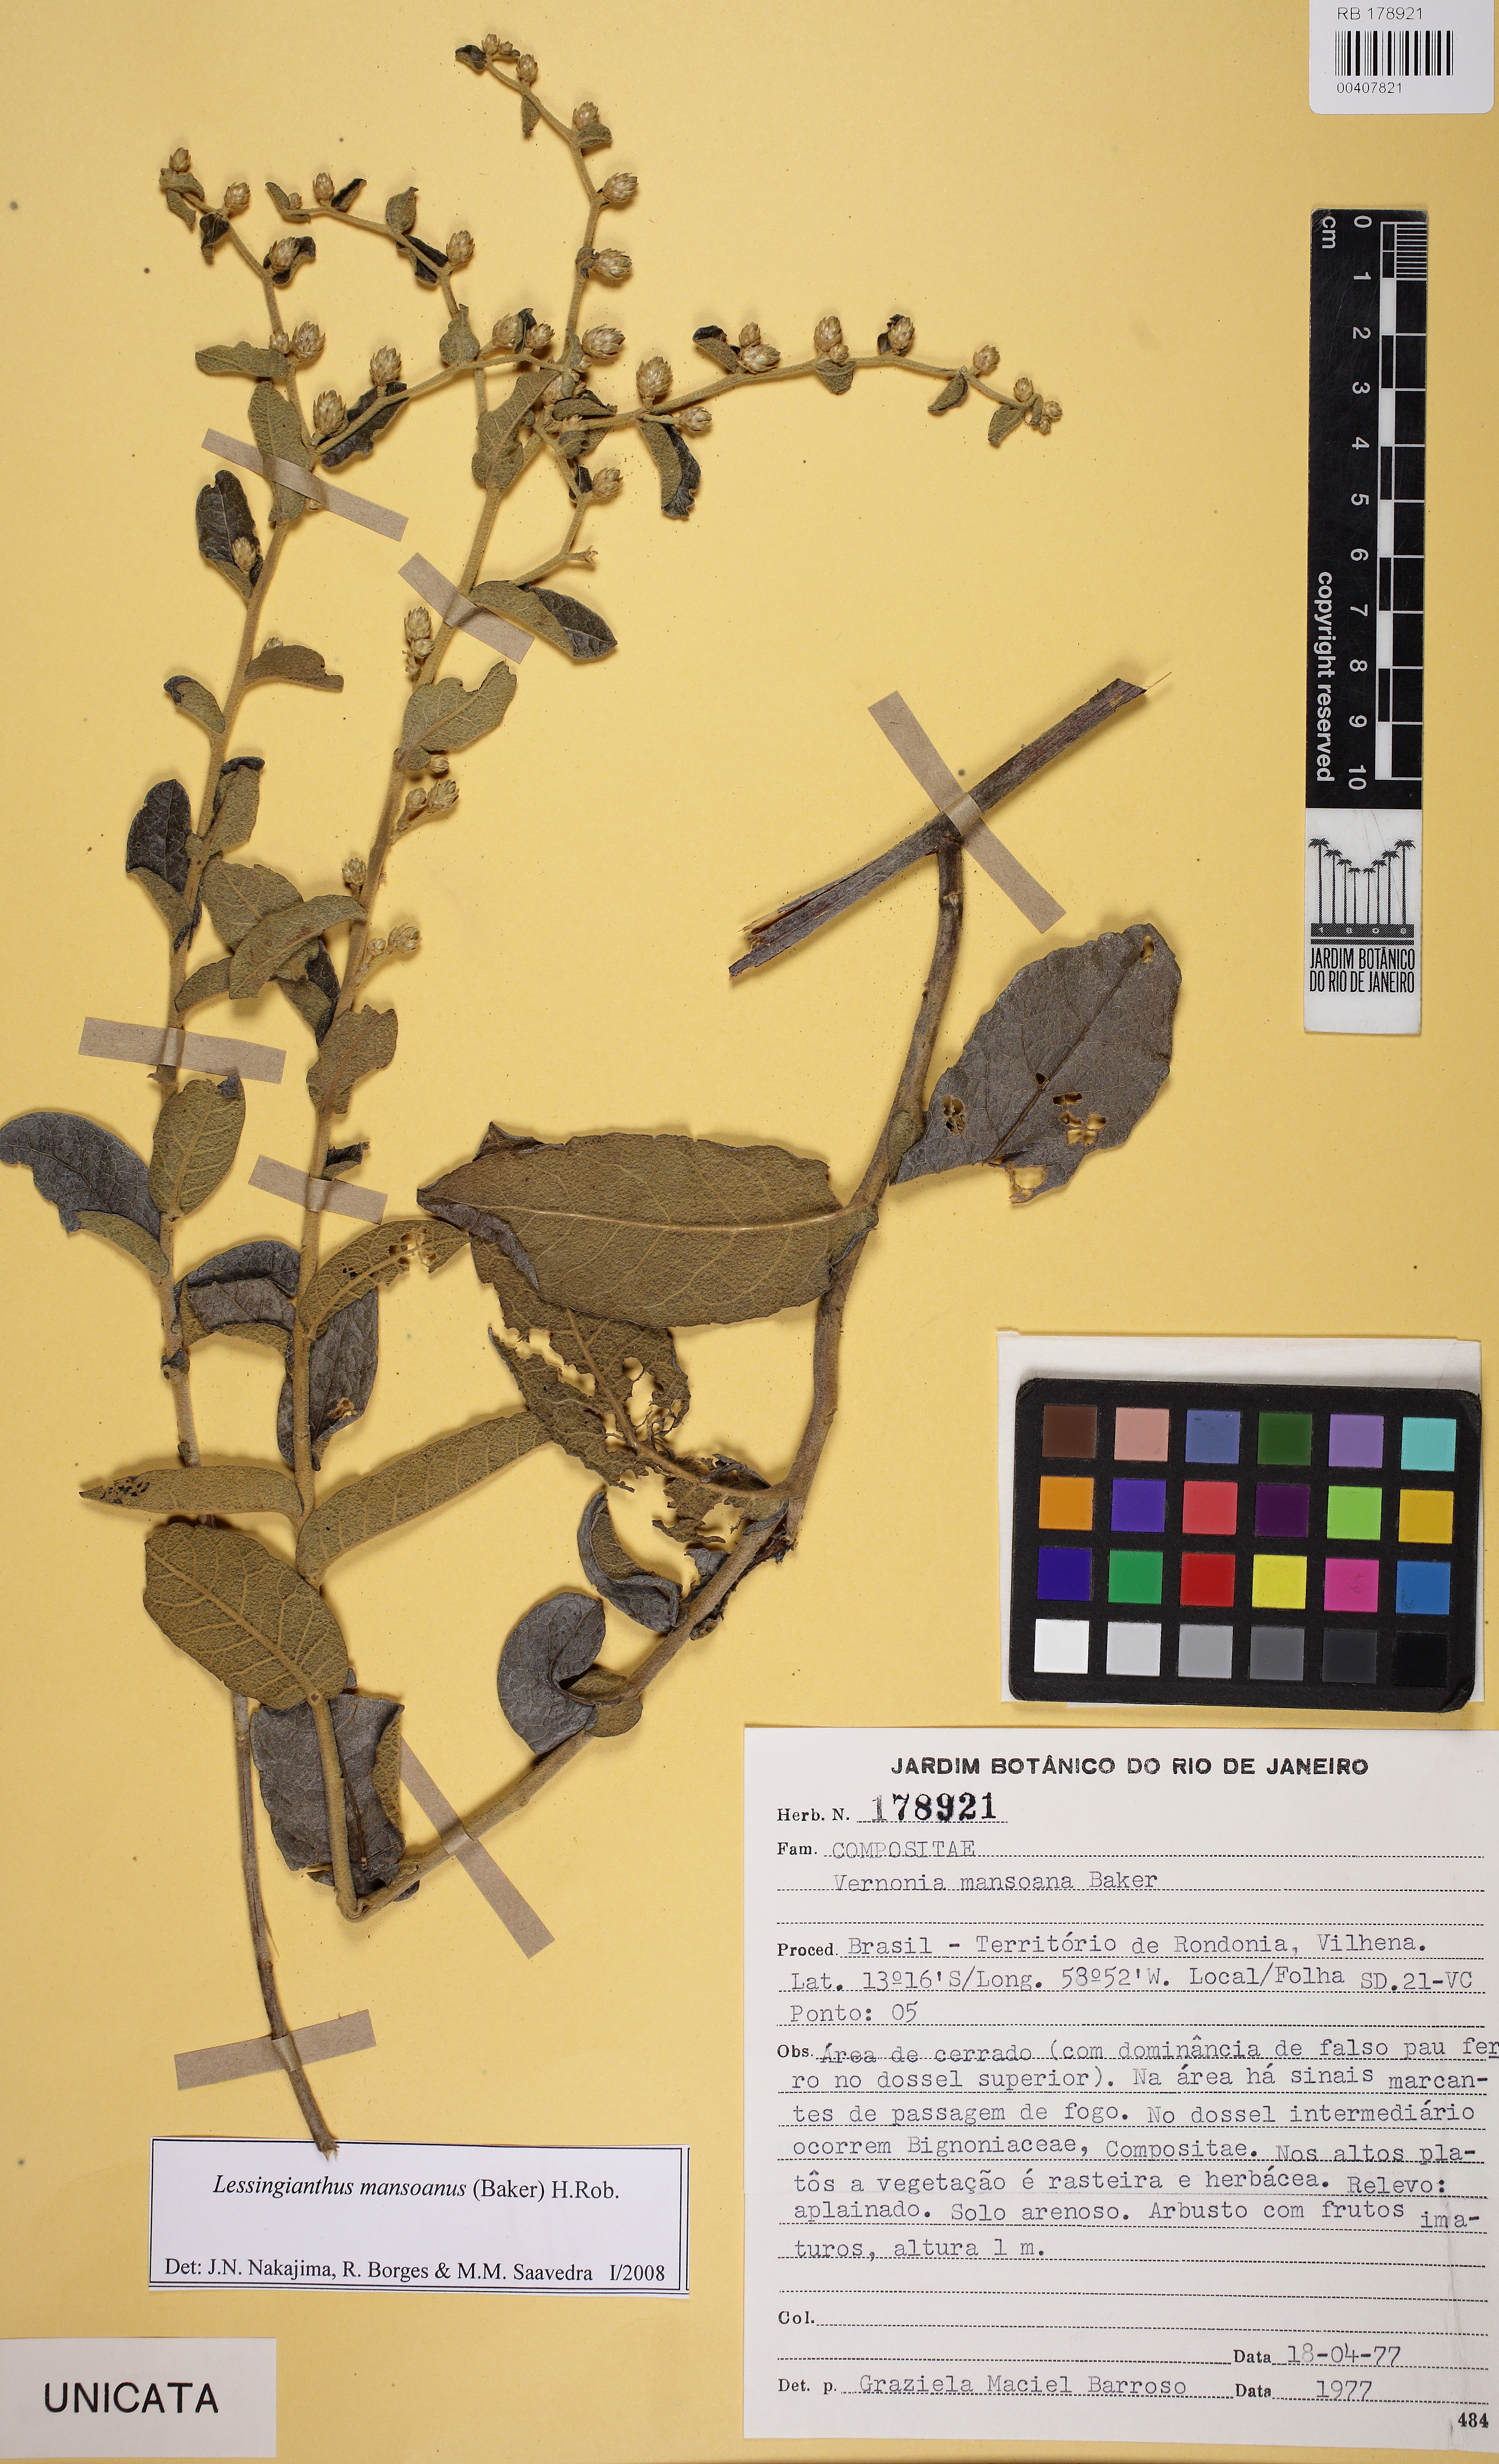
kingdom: Plantae
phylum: Tracheophyta
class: Magnoliopsida
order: Asterales
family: Asteraceae
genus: Lessingianthus
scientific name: Lessingianthus mansoanus
